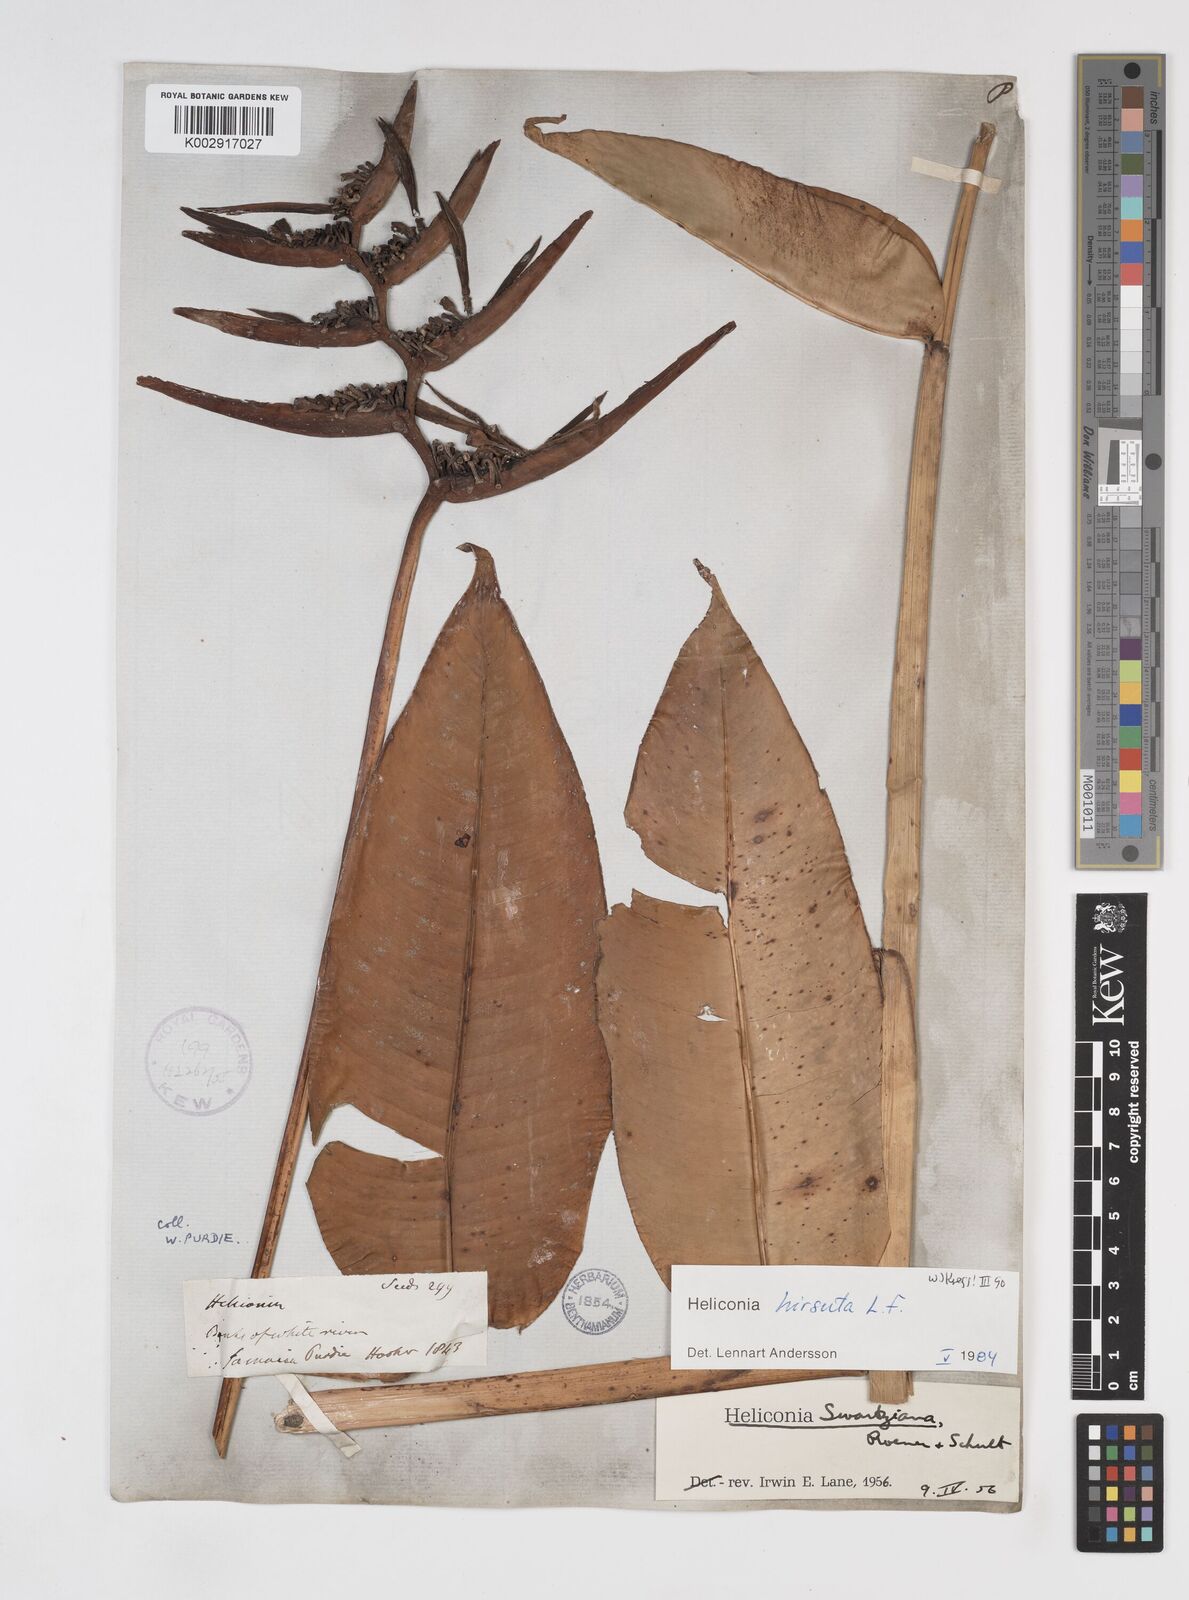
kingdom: Plantae
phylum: Tracheophyta
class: Liliopsida
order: Zingiberales
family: Heliconiaceae
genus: Heliconia
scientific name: Heliconia hirsuta
